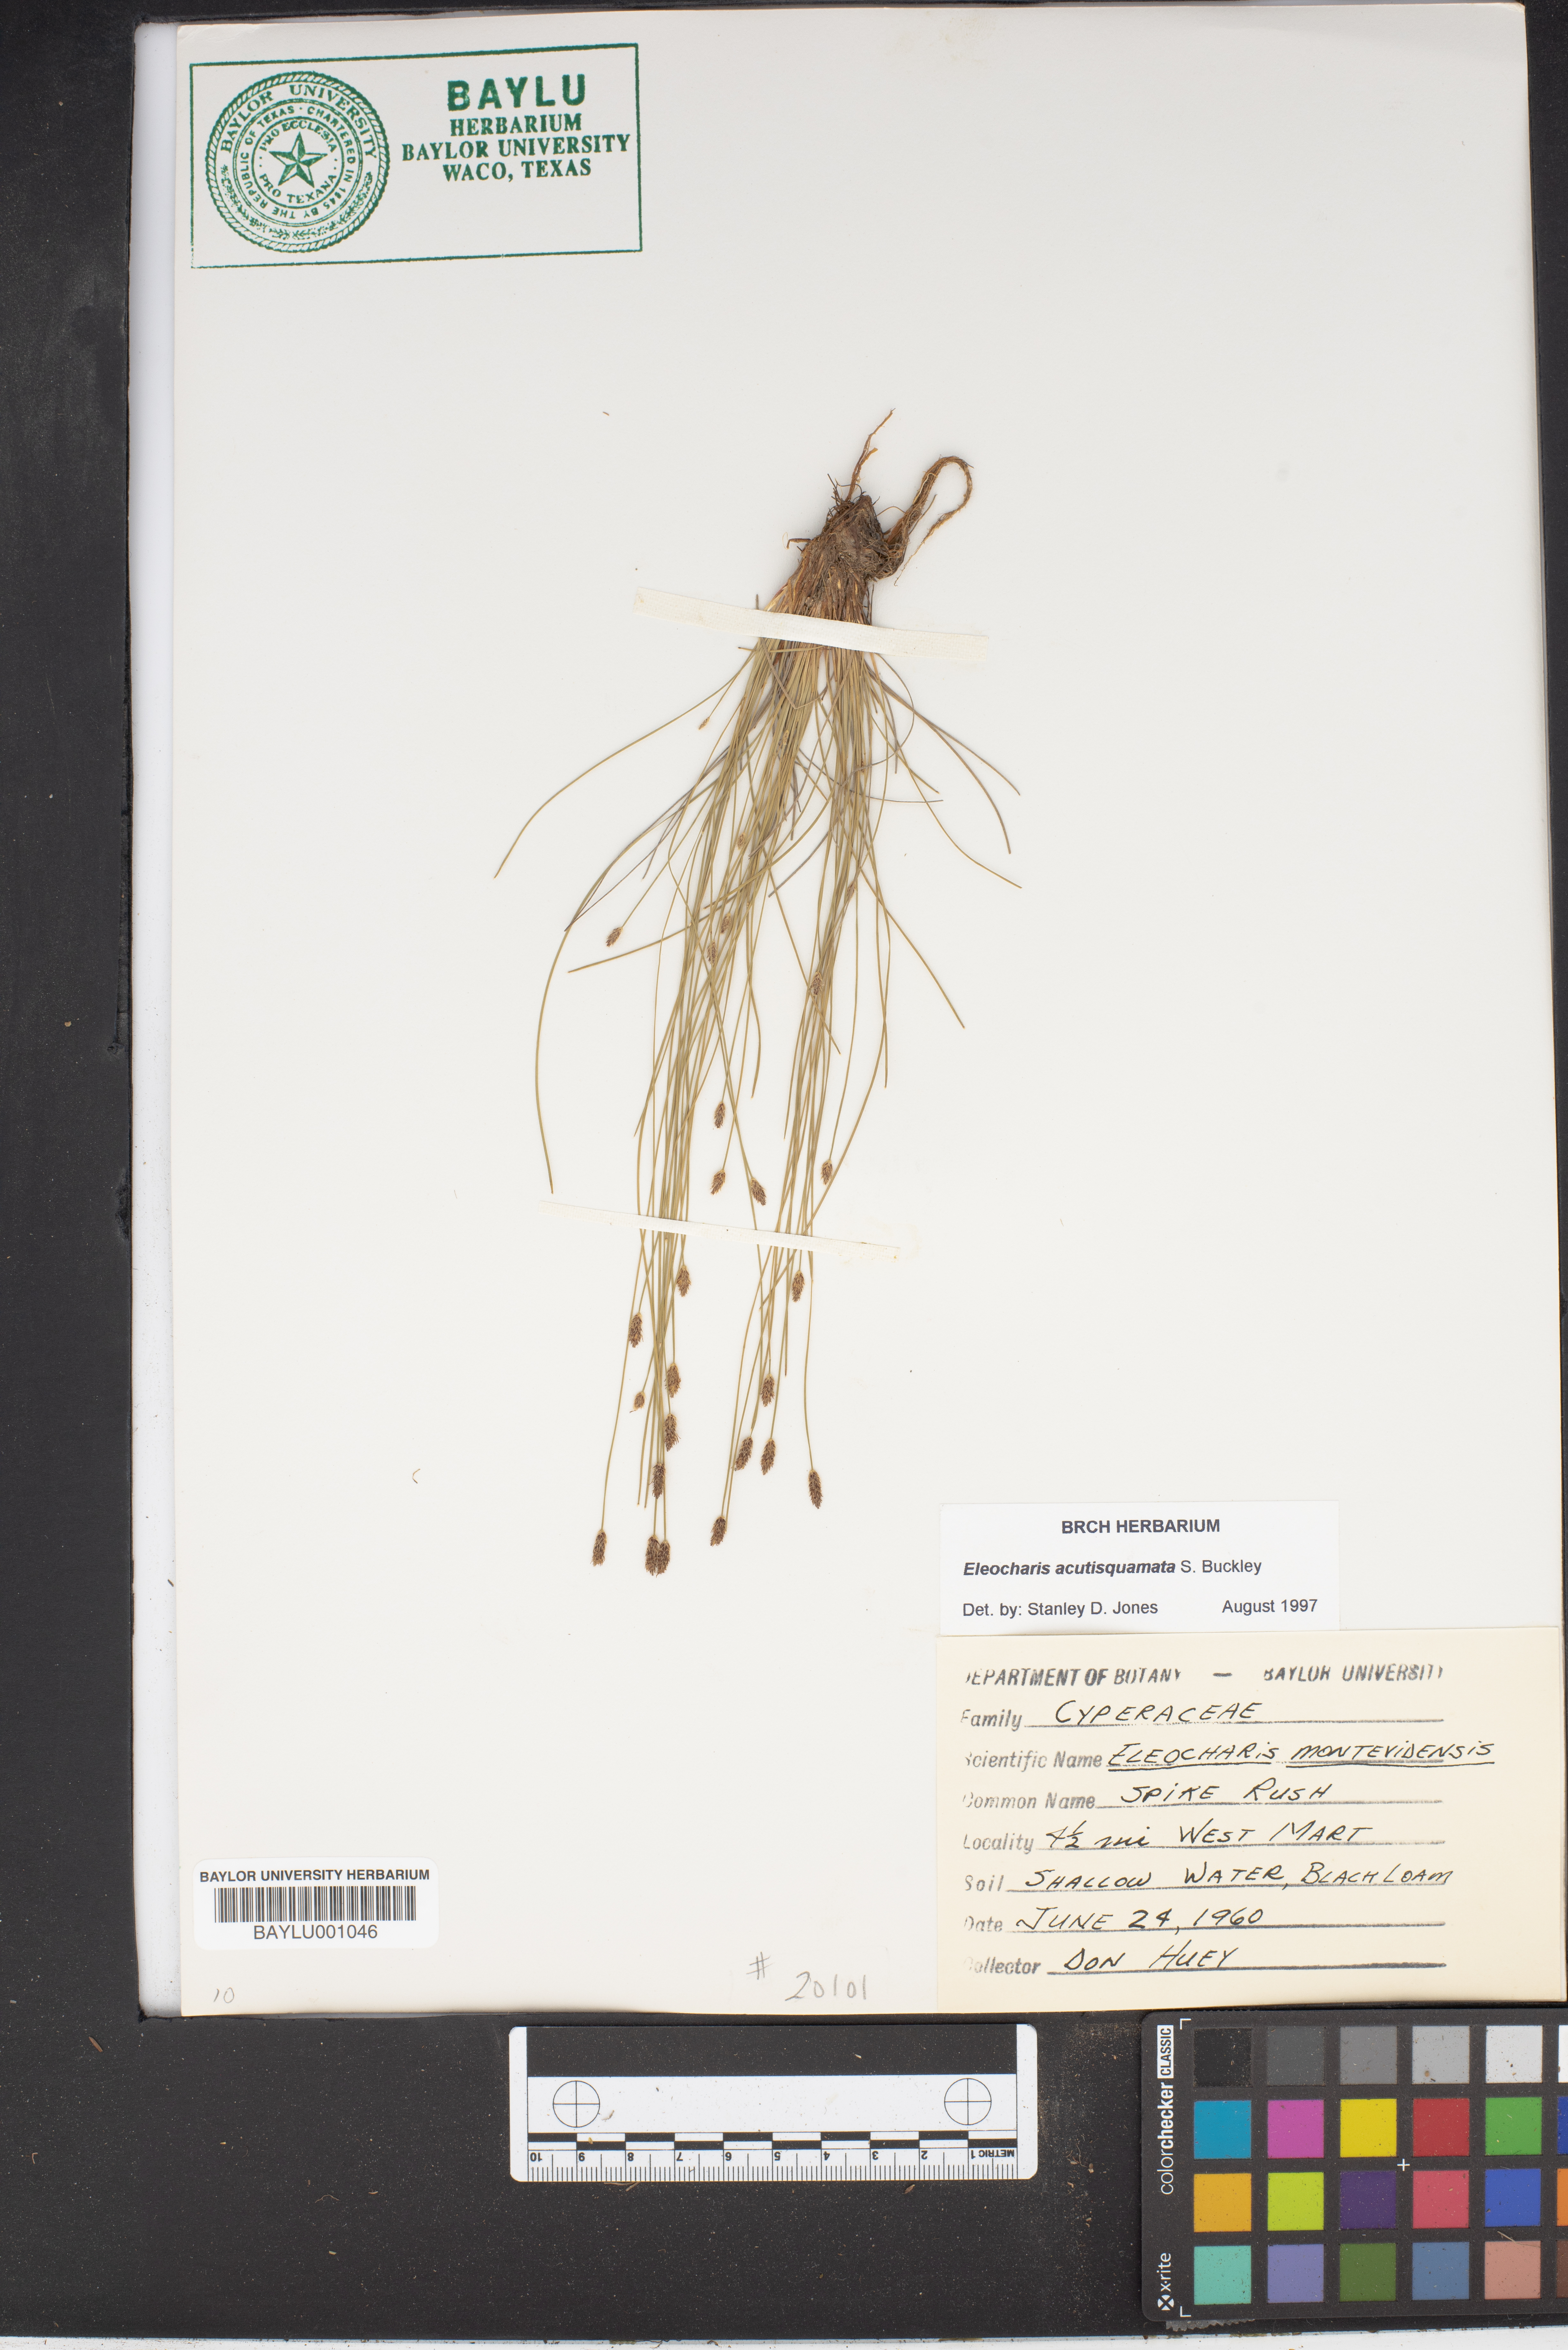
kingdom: Plantae
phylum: Tracheophyta
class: Liliopsida
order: Poales
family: Cyperaceae
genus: Eleocharis
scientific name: Eleocharis montevidensis
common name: Sand spike-rush
